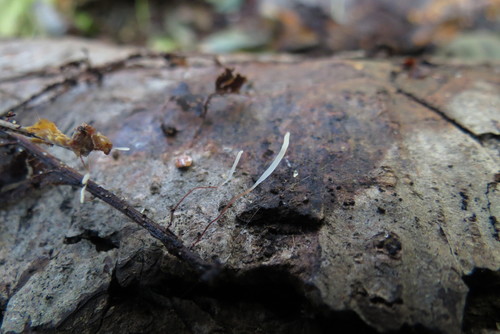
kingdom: Fungi
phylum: Basidiomycota
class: Agaricomycetes
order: Agaricales
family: Typhulaceae
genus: Typhula
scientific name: Typhula erythropus
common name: Redleg club
